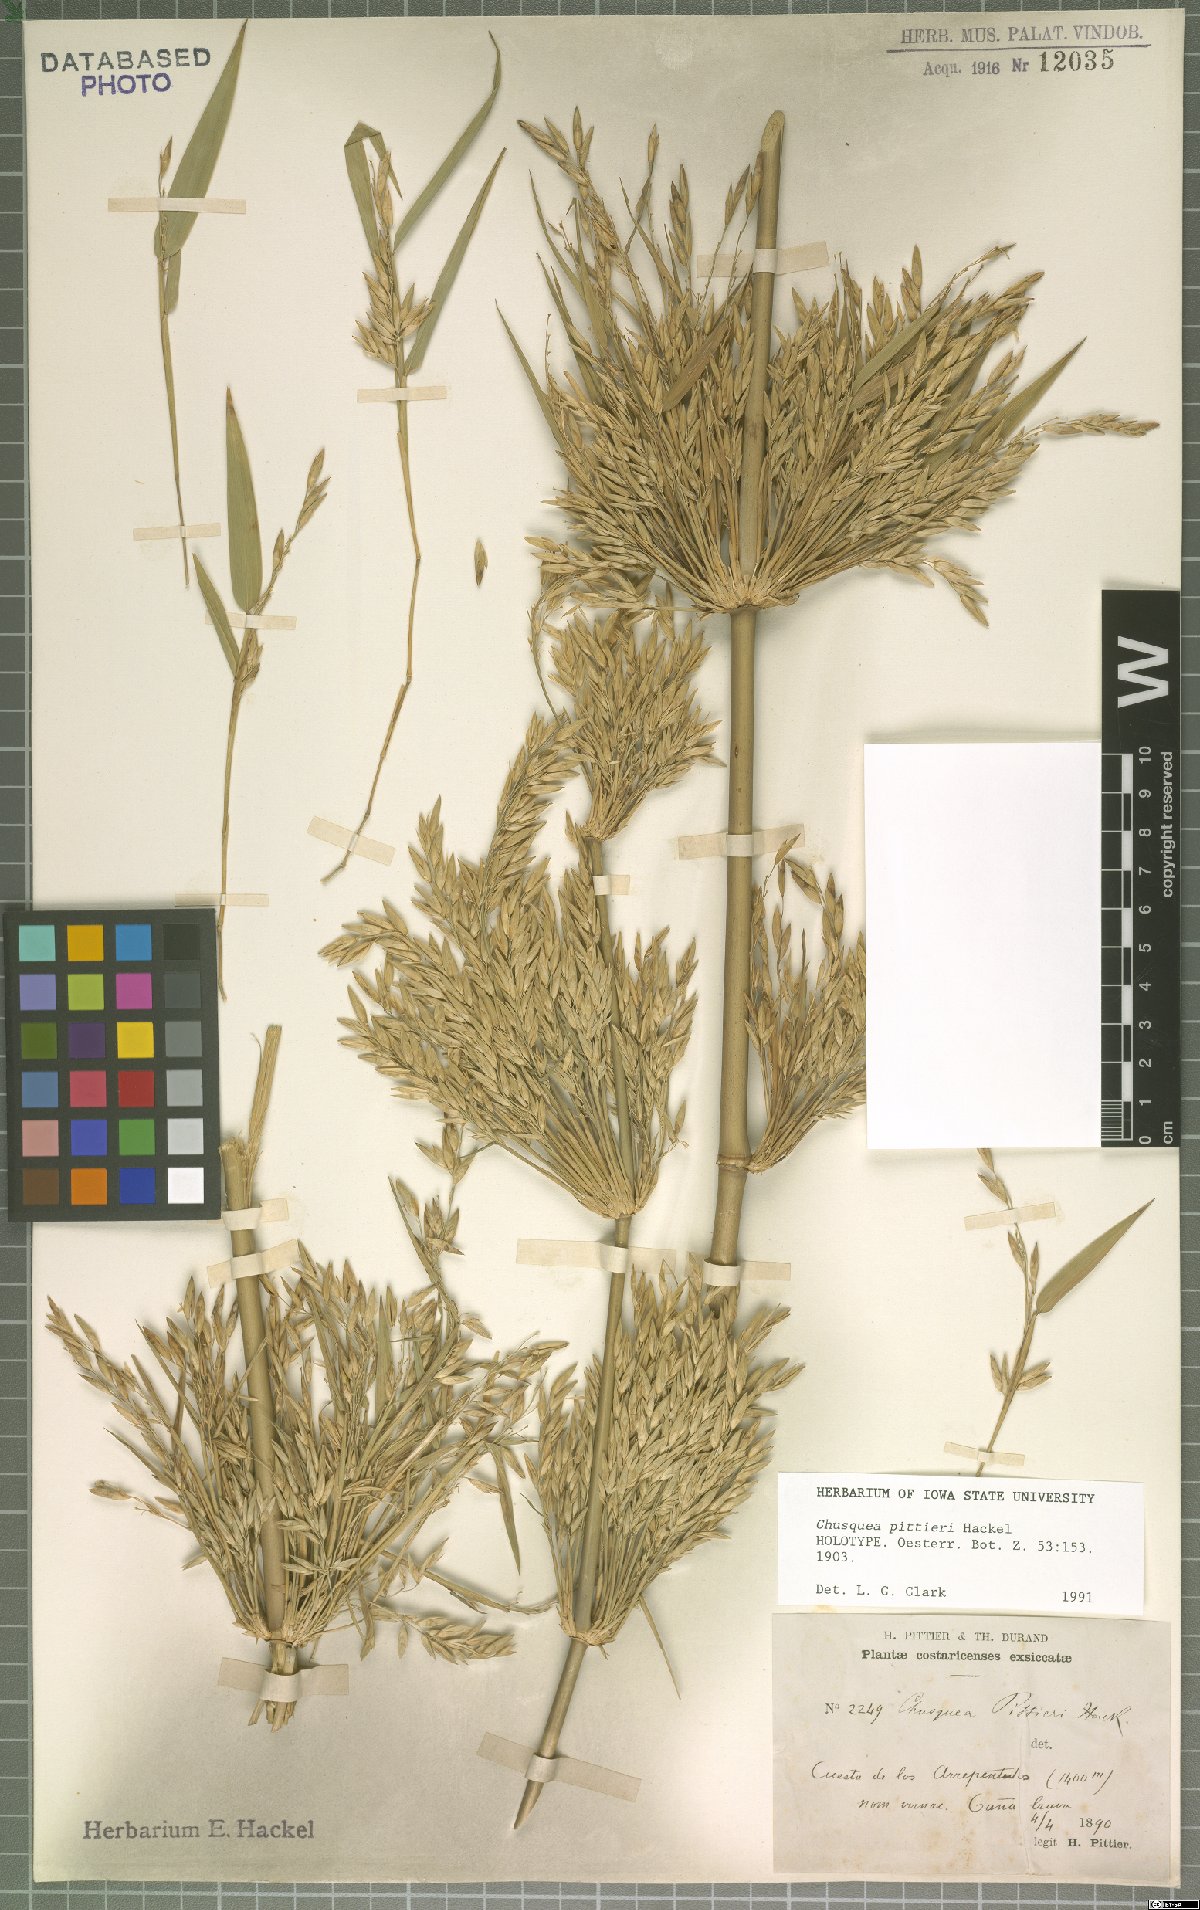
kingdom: Plantae
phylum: Tracheophyta
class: Liliopsida
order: Poales
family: Poaceae
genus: Chusquea
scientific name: Chusquea pittieri
